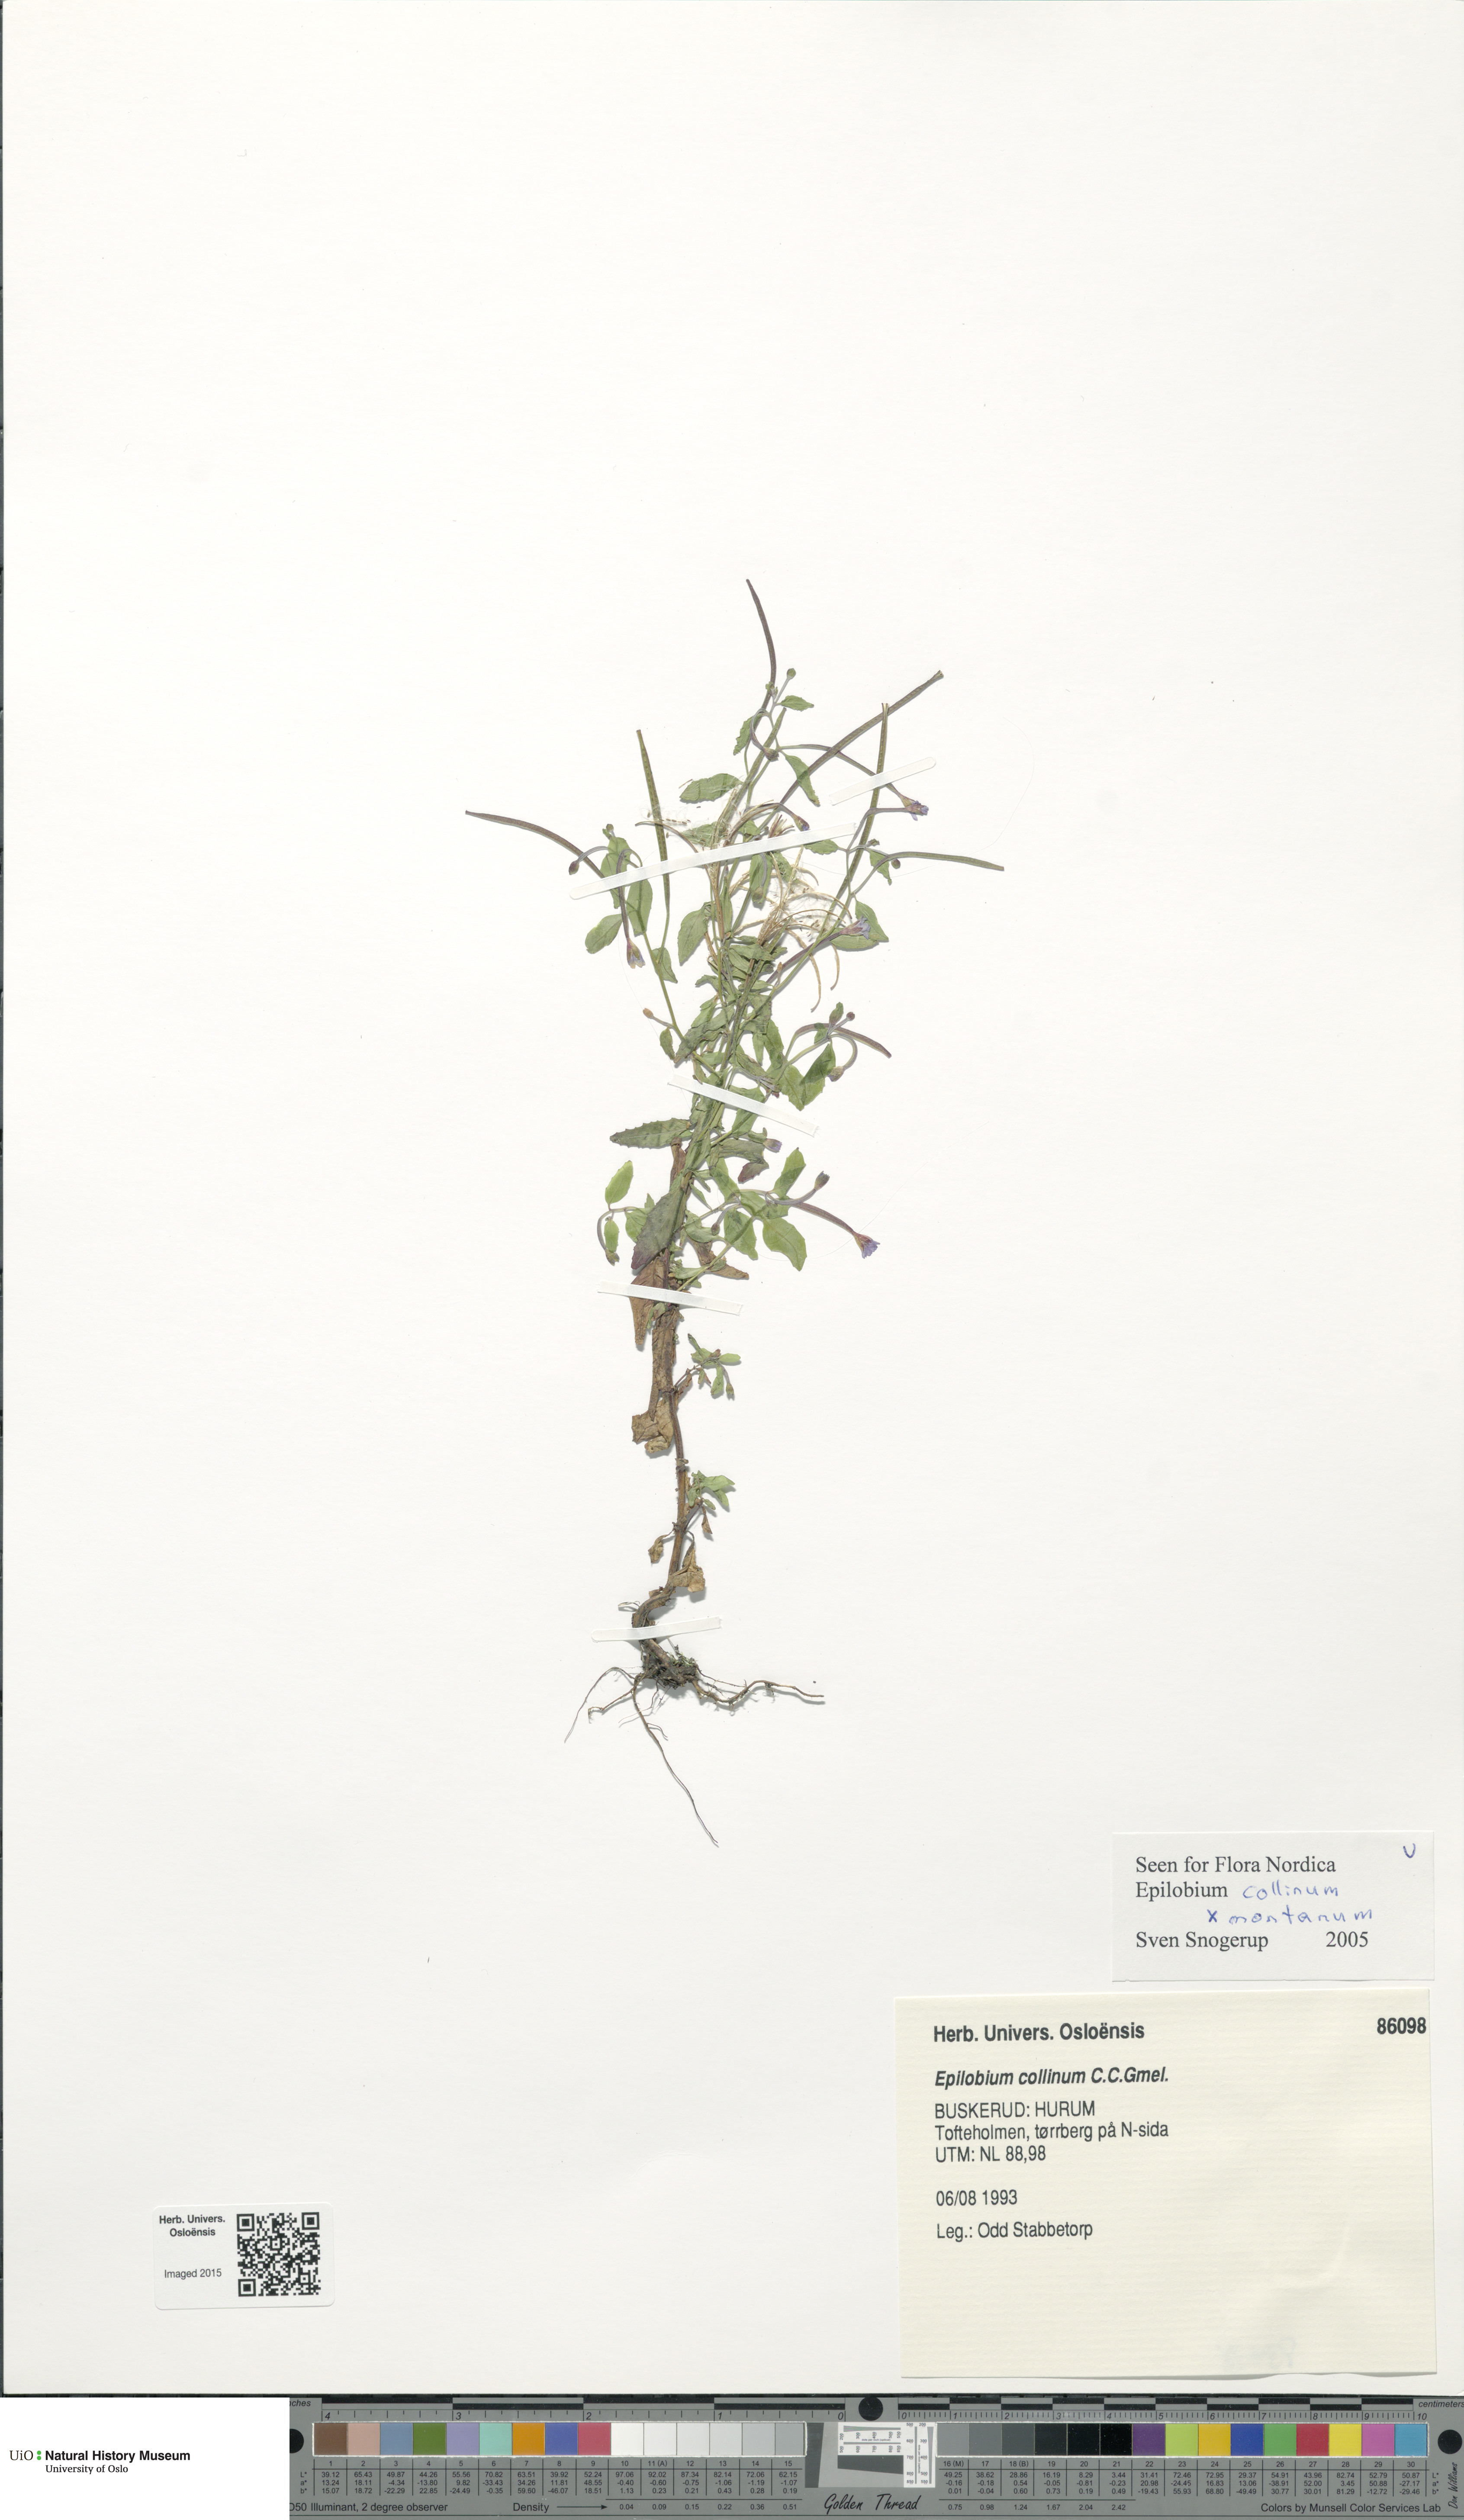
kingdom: Plantae
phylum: Tracheophyta
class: Magnoliopsida
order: Myrtales
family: Onagraceae
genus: Epilobium
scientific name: Epilobium
